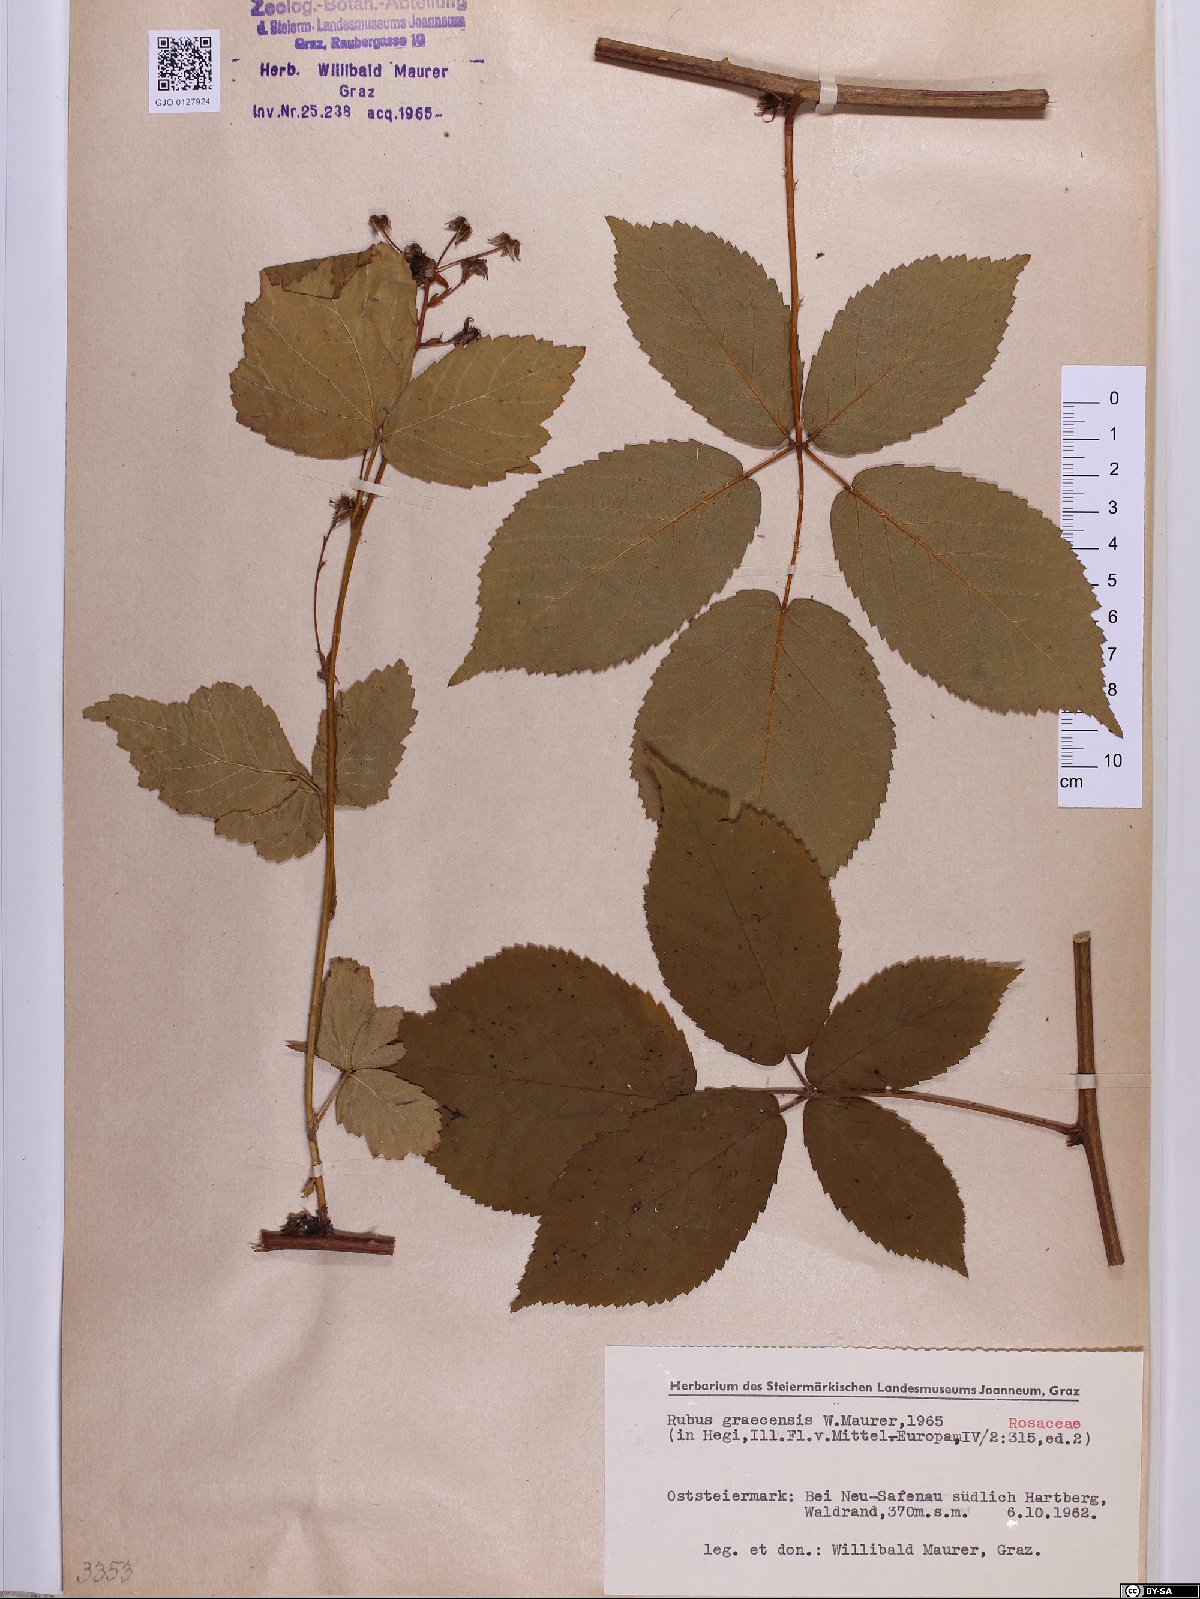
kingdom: Plantae
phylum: Tracheophyta
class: Magnoliopsida
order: Rosales
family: Rosaceae
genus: Rubus
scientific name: Rubus graecensis
